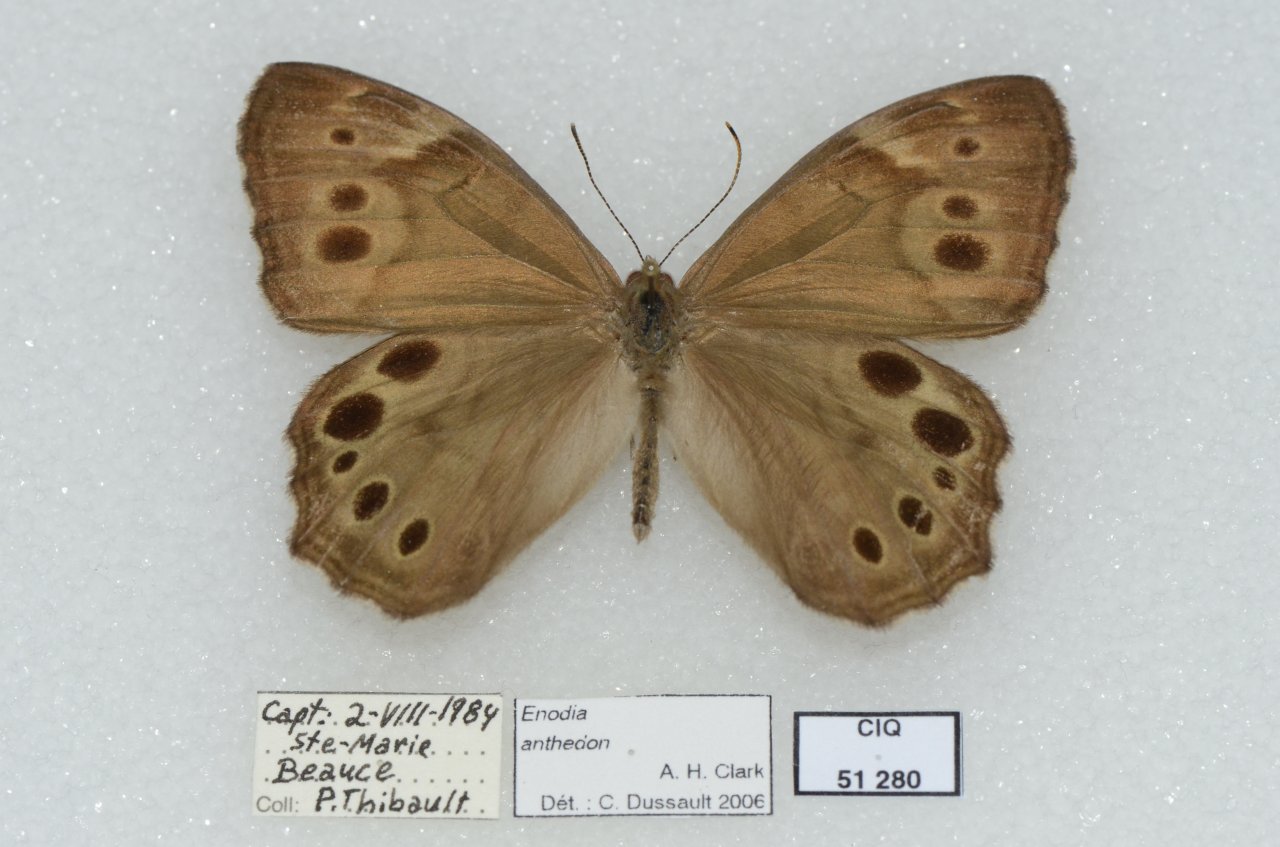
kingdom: Animalia
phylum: Arthropoda
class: Insecta
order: Lepidoptera
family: Nymphalidae
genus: Lethe
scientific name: Lethe anthedon
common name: Northern Pearly-Eye
